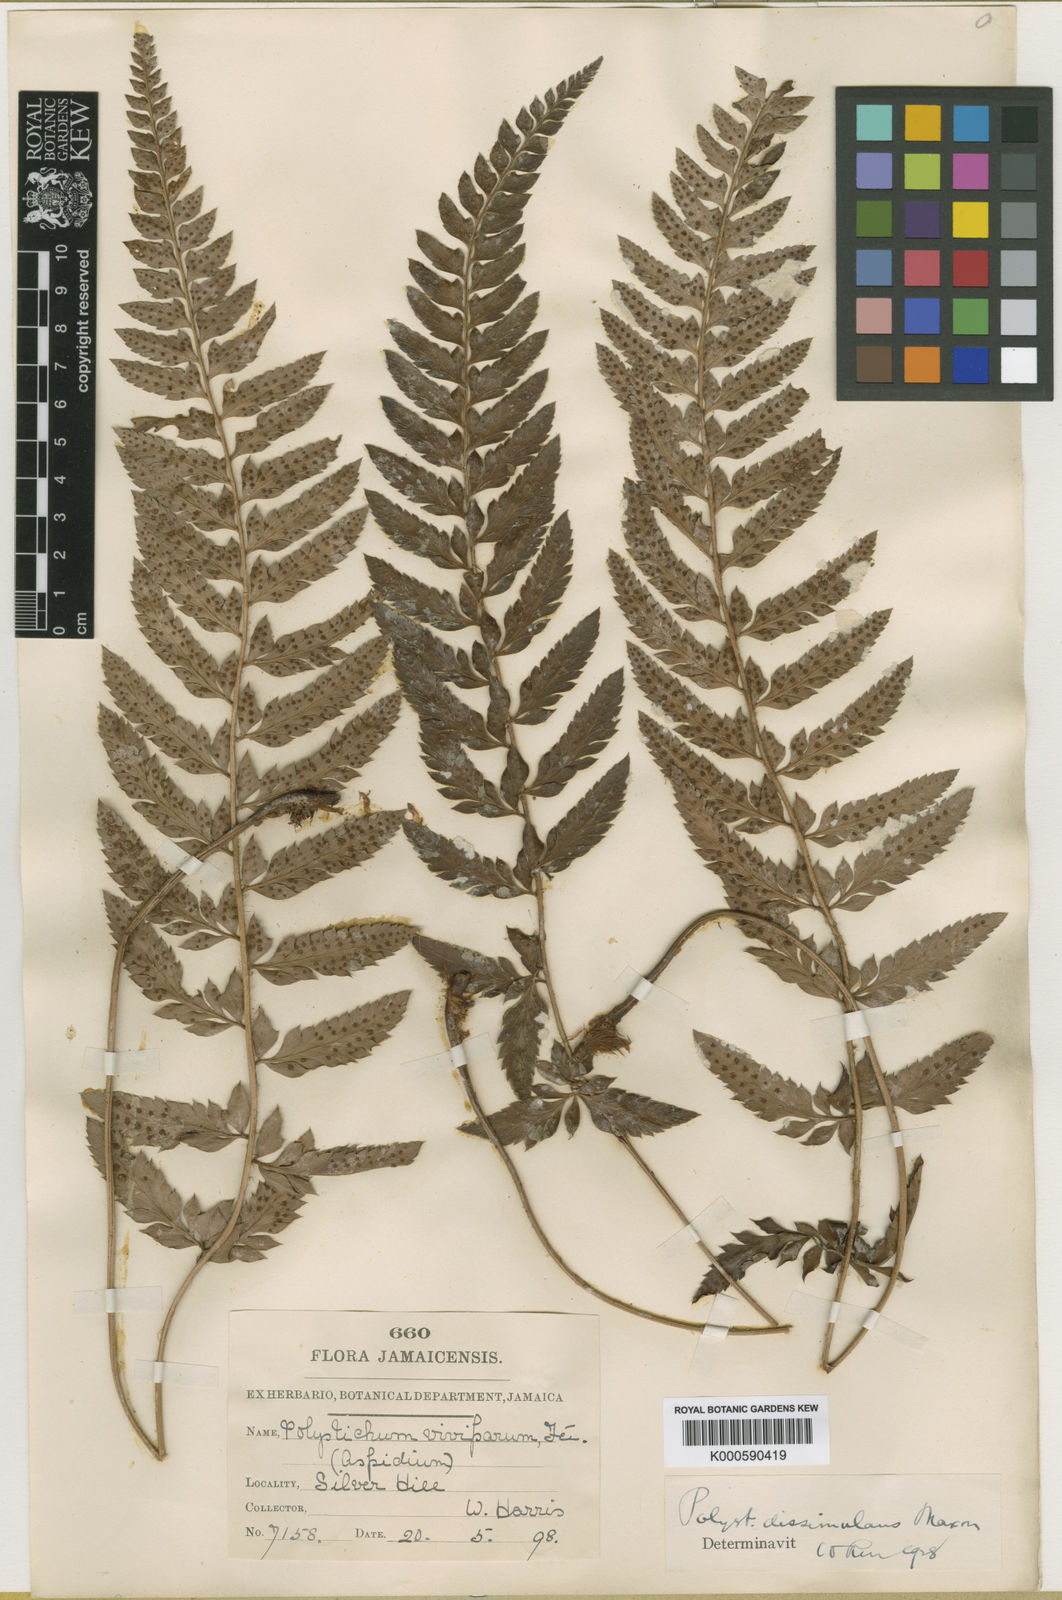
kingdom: Plantae
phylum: Tracheophyta
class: Polypodiopsida
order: Polypodiales
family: Dryopteridaceae
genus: Polystichum
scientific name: Polystichum dissimulans
